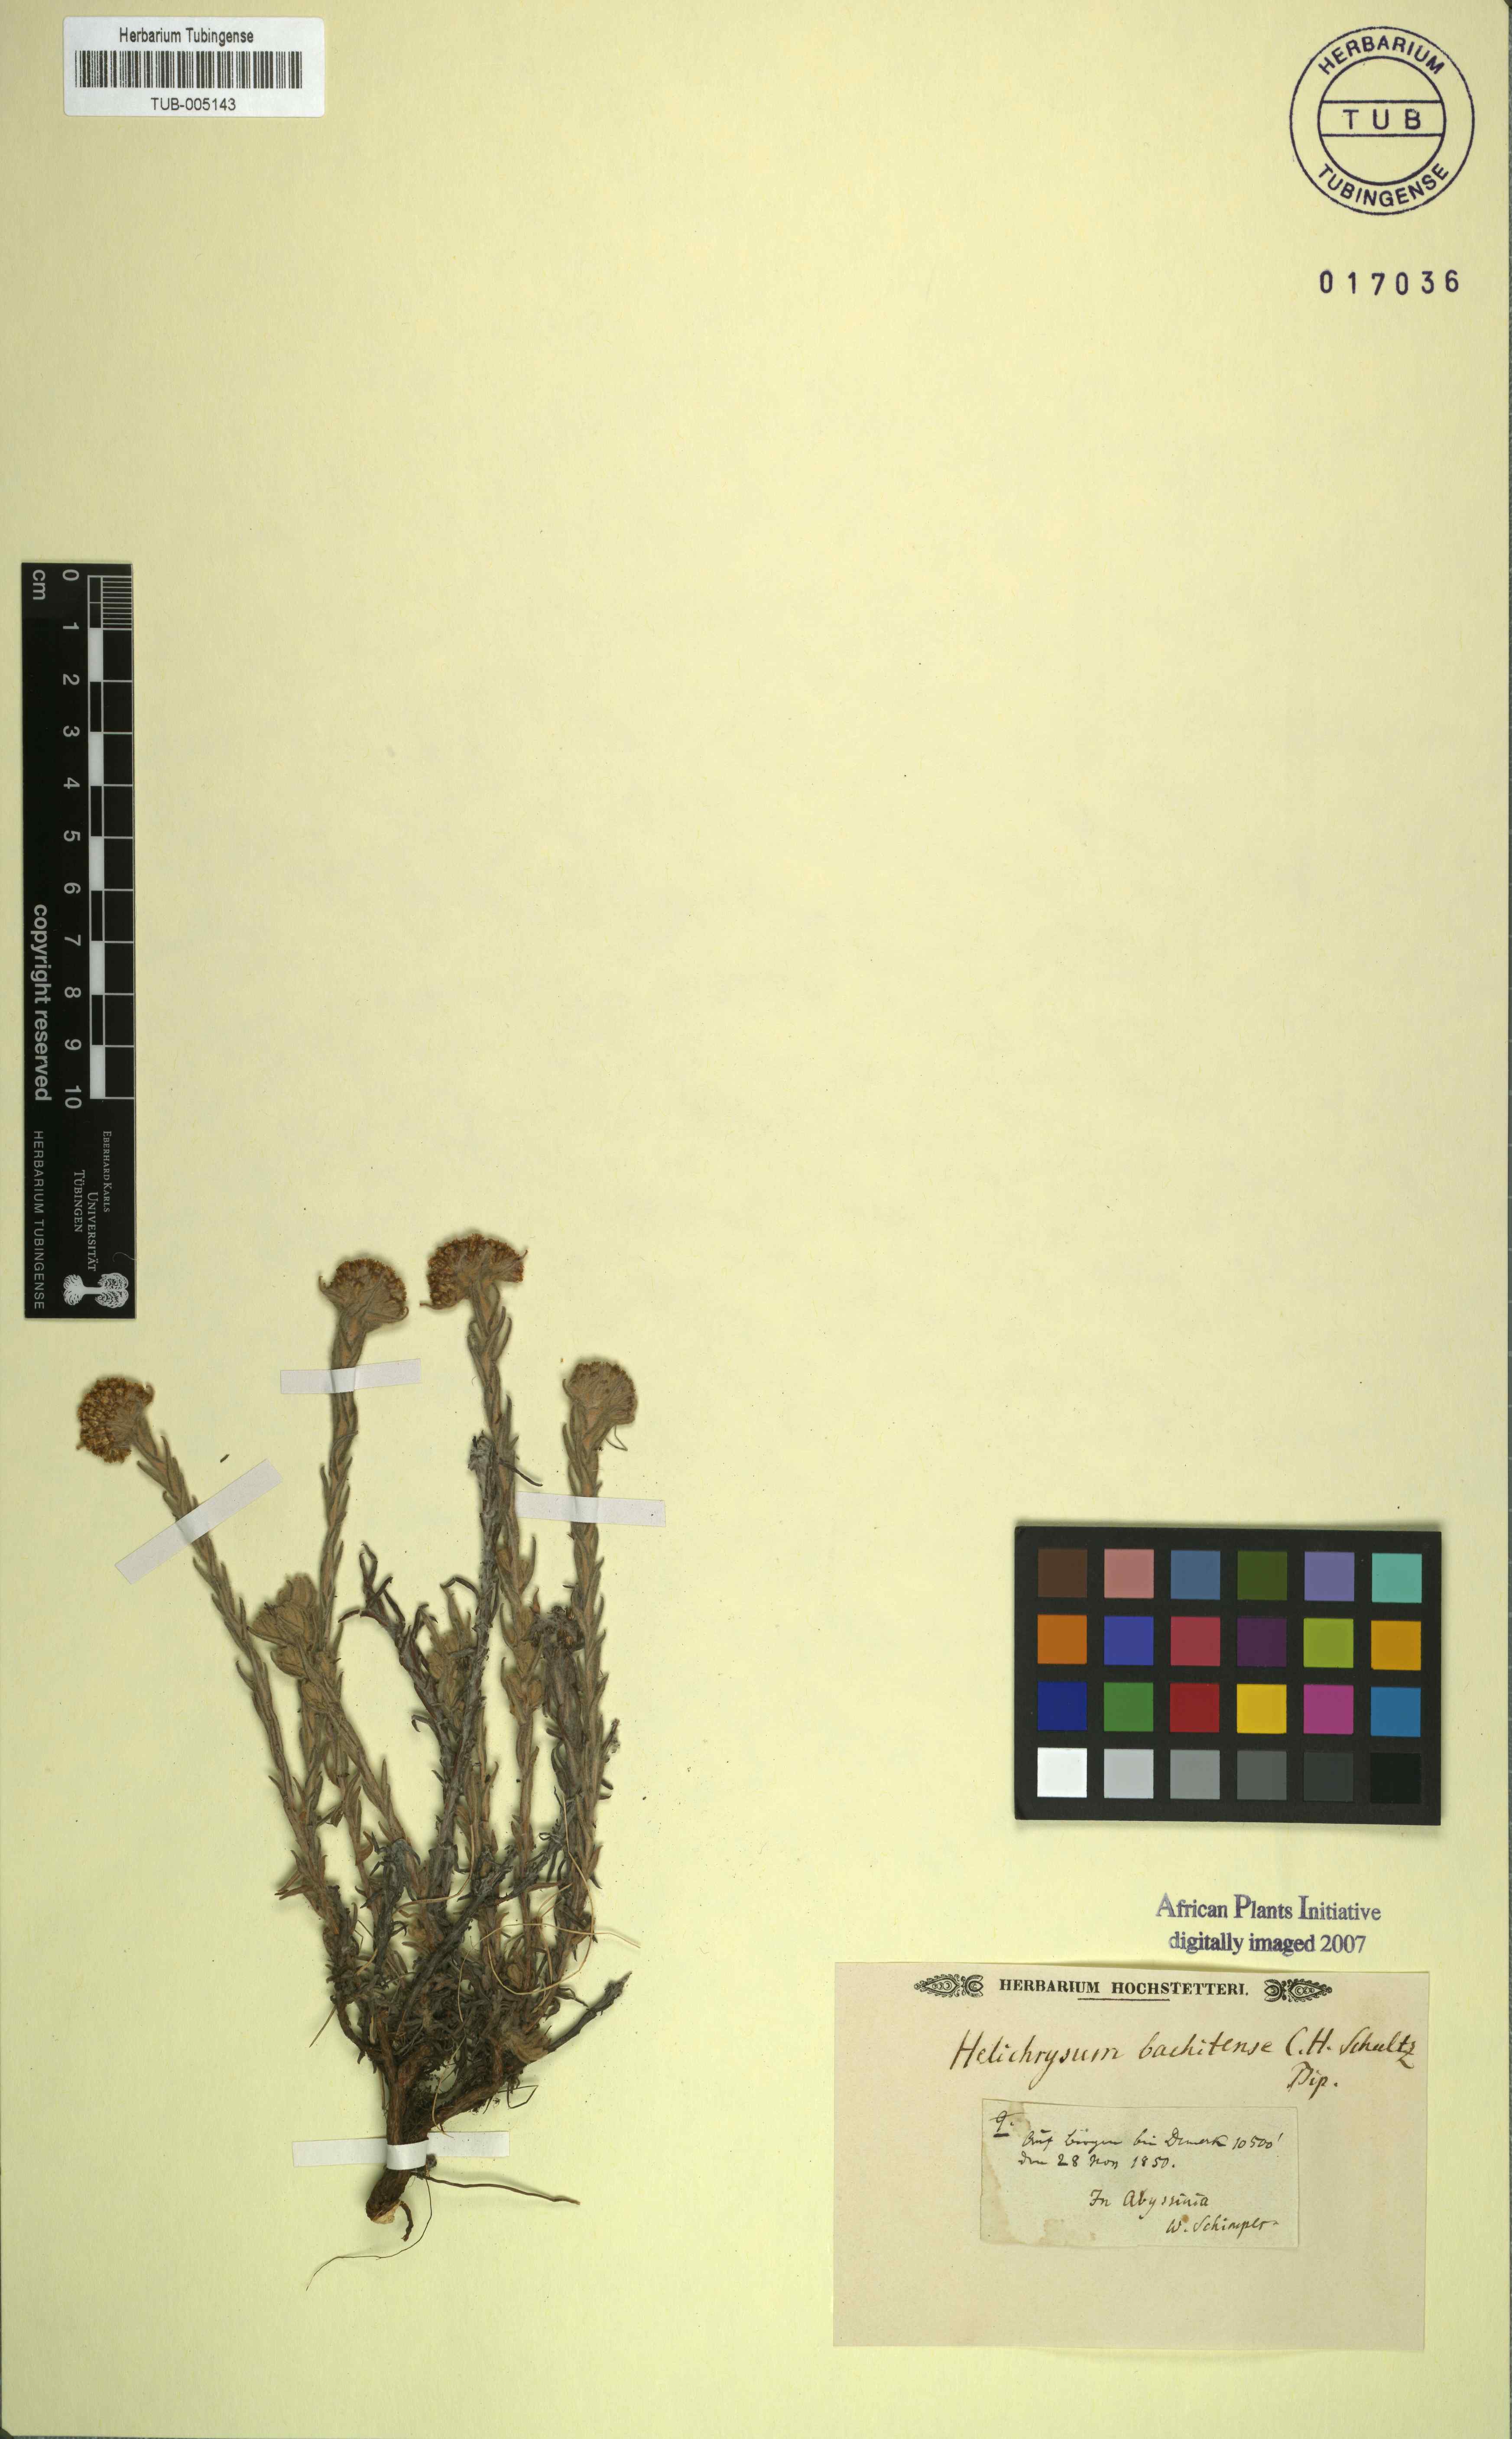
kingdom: Plantae
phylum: Tracheophyta
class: Magnoliopsida
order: Asterales
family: Asteraceae
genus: Helichrysum
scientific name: Helichrysum
